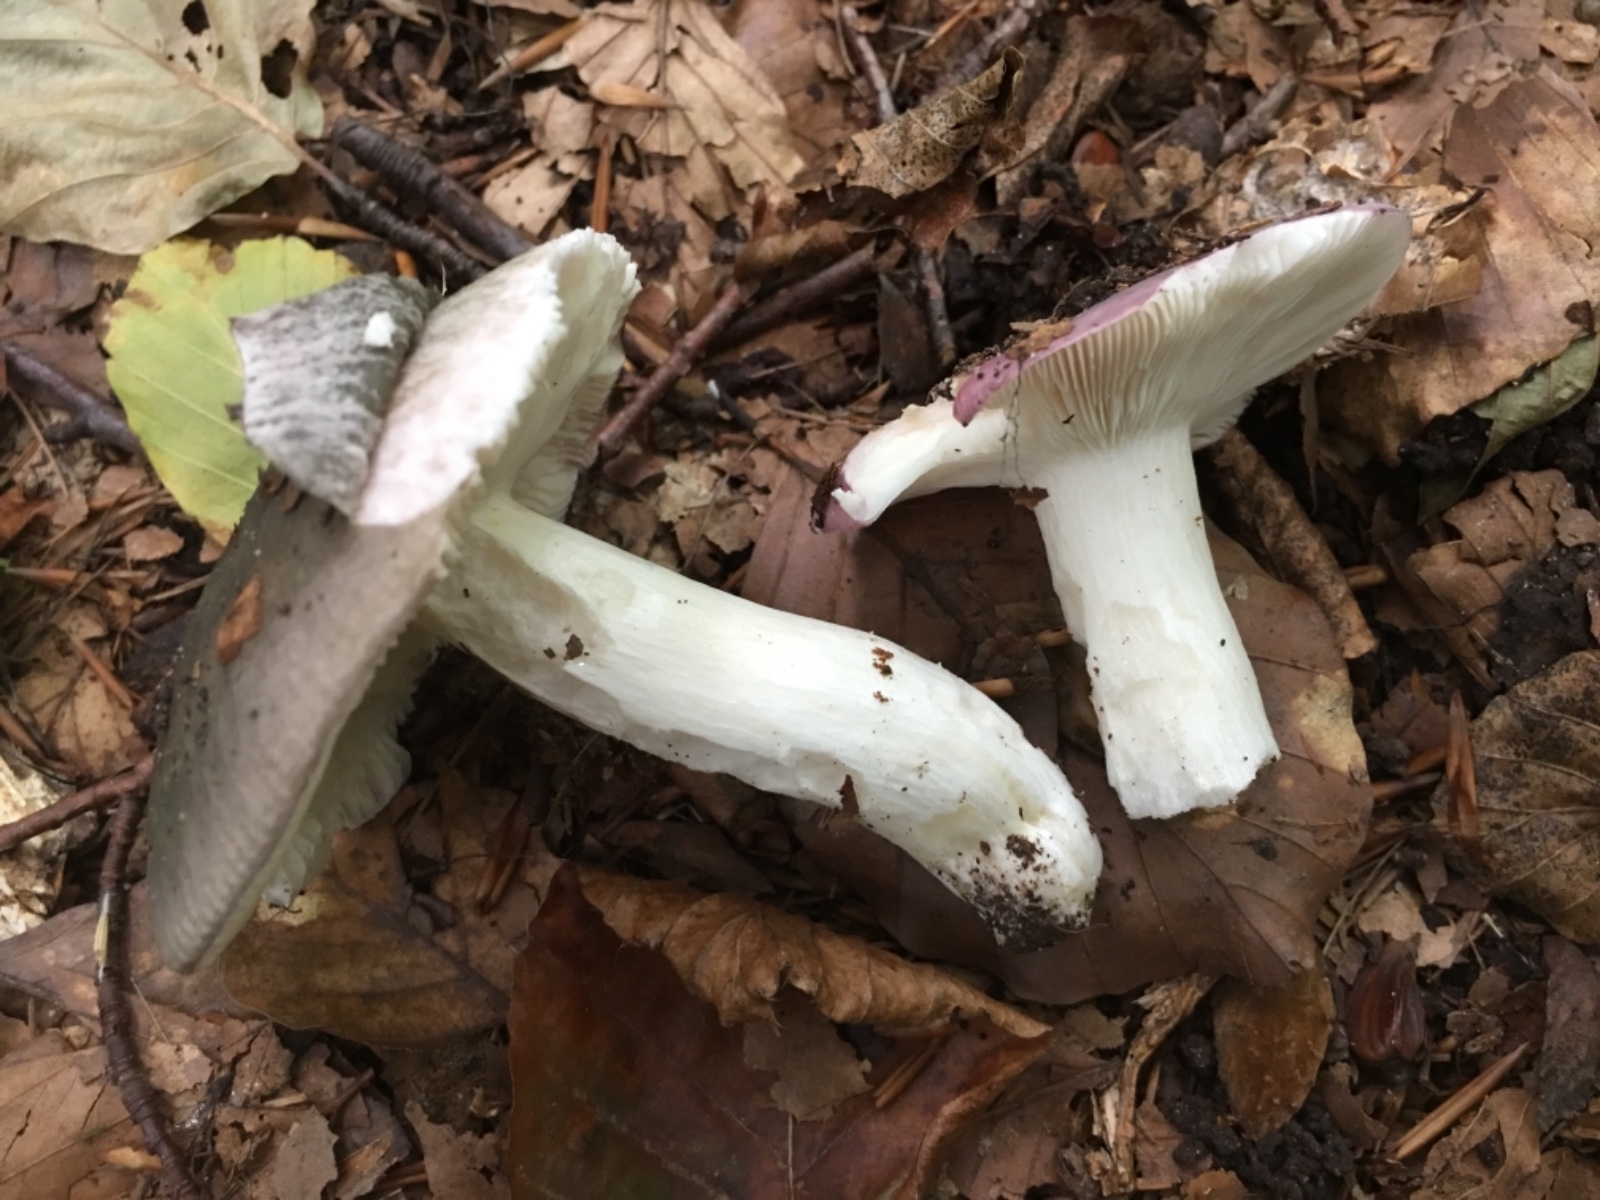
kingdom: Fungi
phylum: Basidiomycota
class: Agaricomycetes
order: Russulales
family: Russulaceae
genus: Russula
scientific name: Russula
